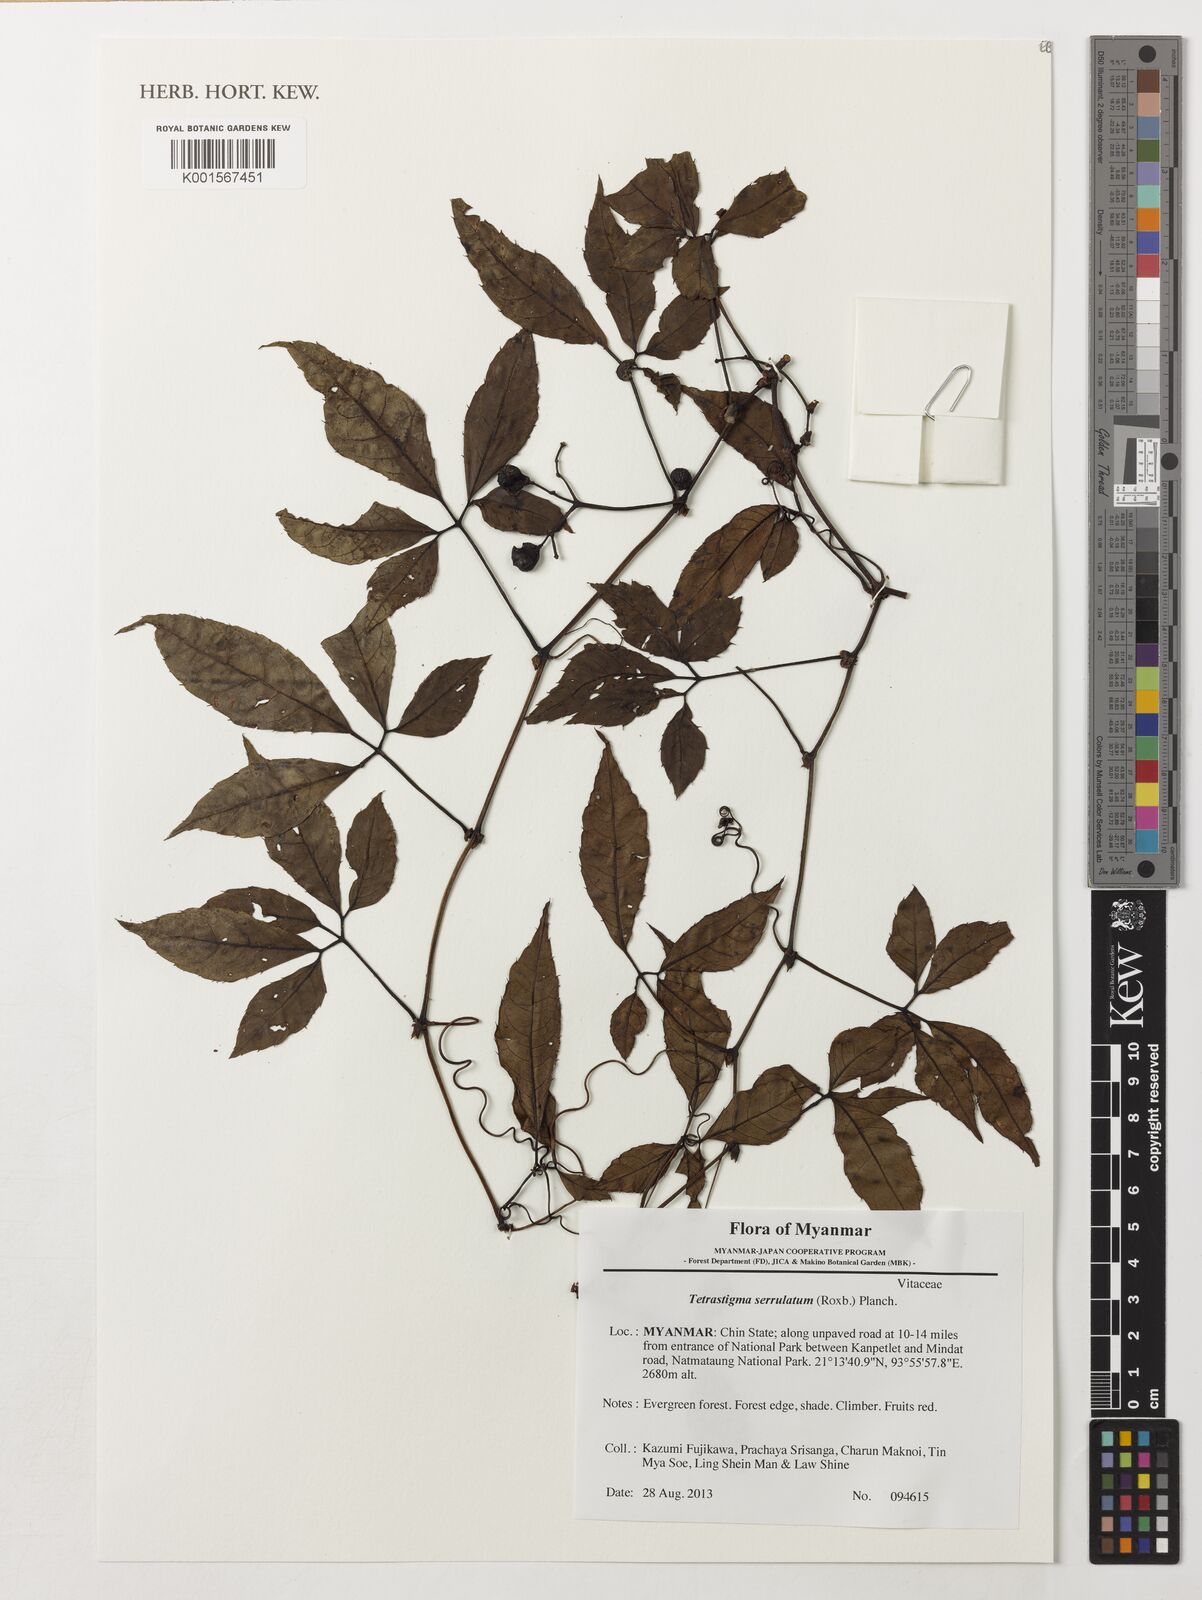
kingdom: Plantae
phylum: Tracheophyta
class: Magnoliopsida
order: Vitales
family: Vitaceae
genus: Tetrastigma
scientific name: Tetrastigma serrulatum
